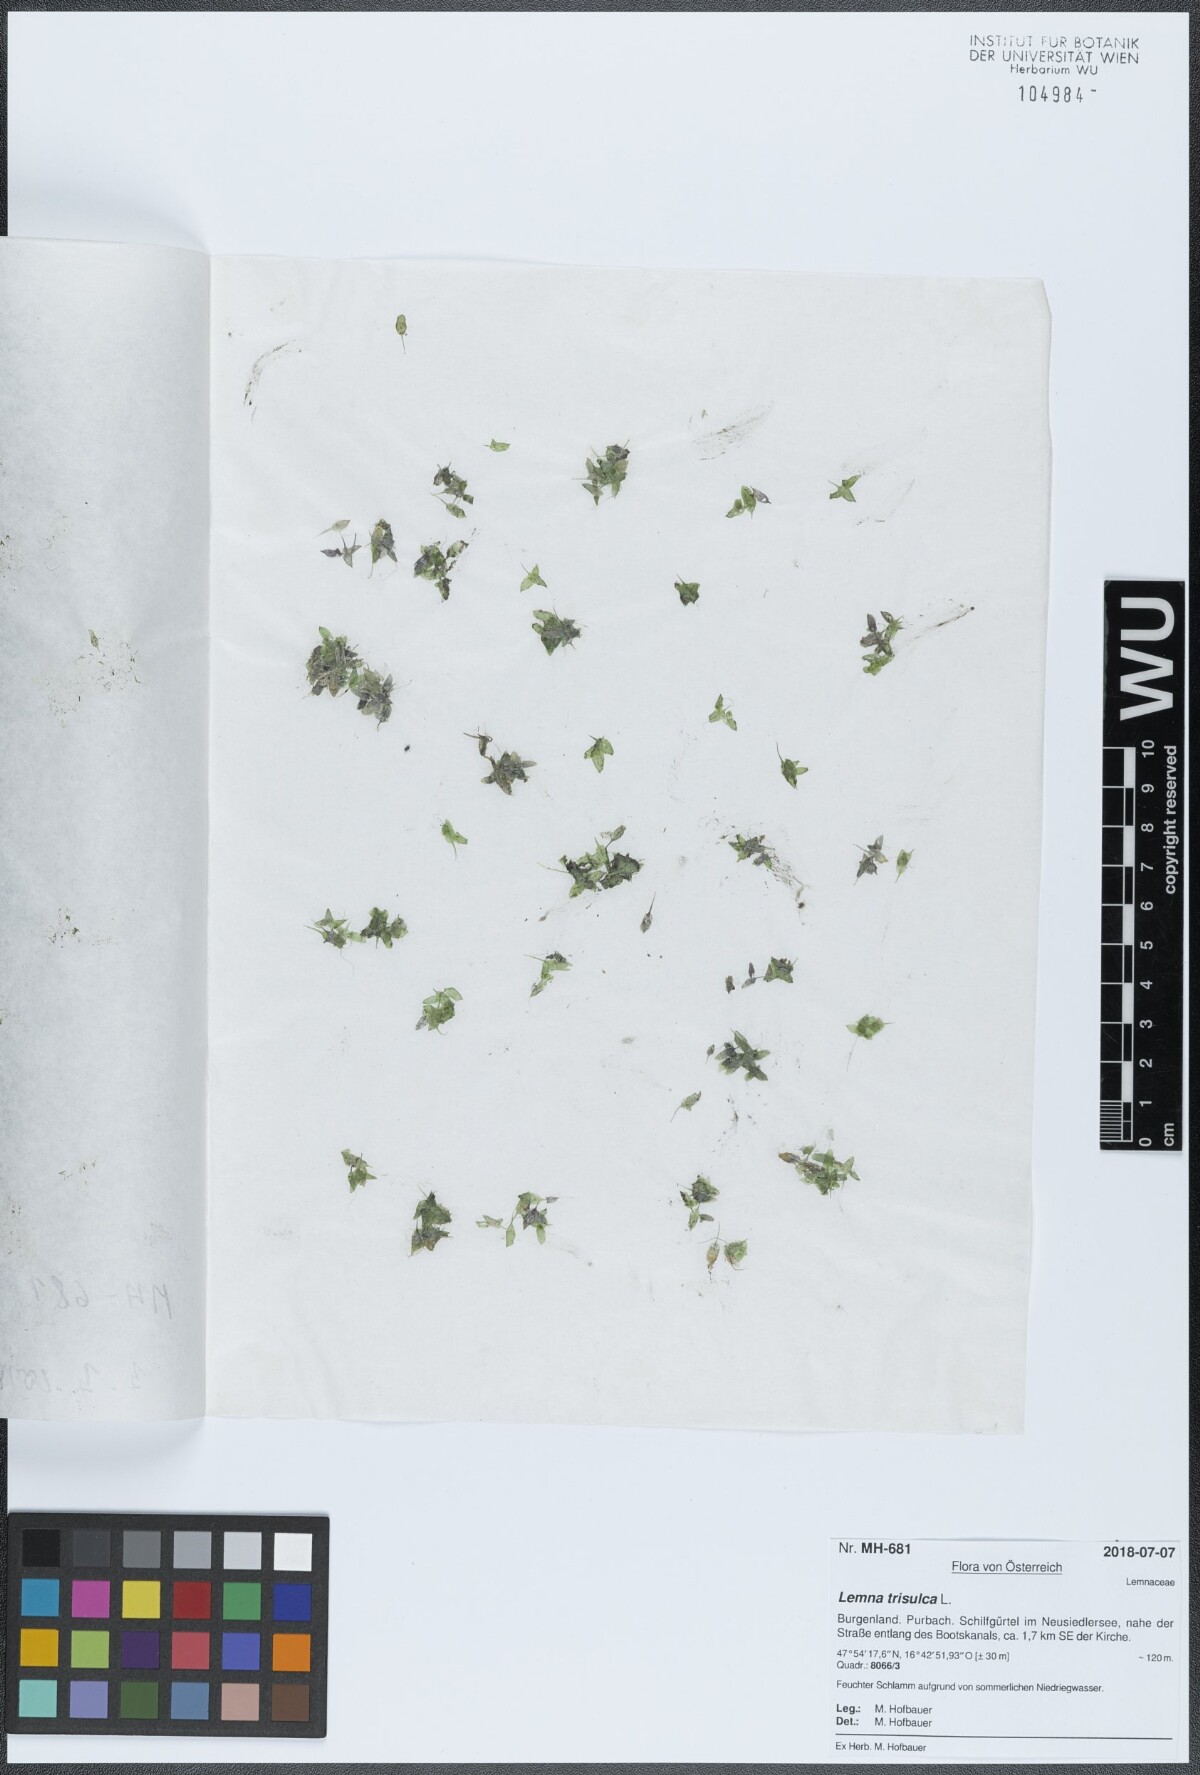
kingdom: Plantae
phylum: Tracheophyta
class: Liliopsida
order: Alismatales
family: Araceae
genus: Lemna
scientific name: Lemna trisulca
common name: Ivy-leaved duckweed
